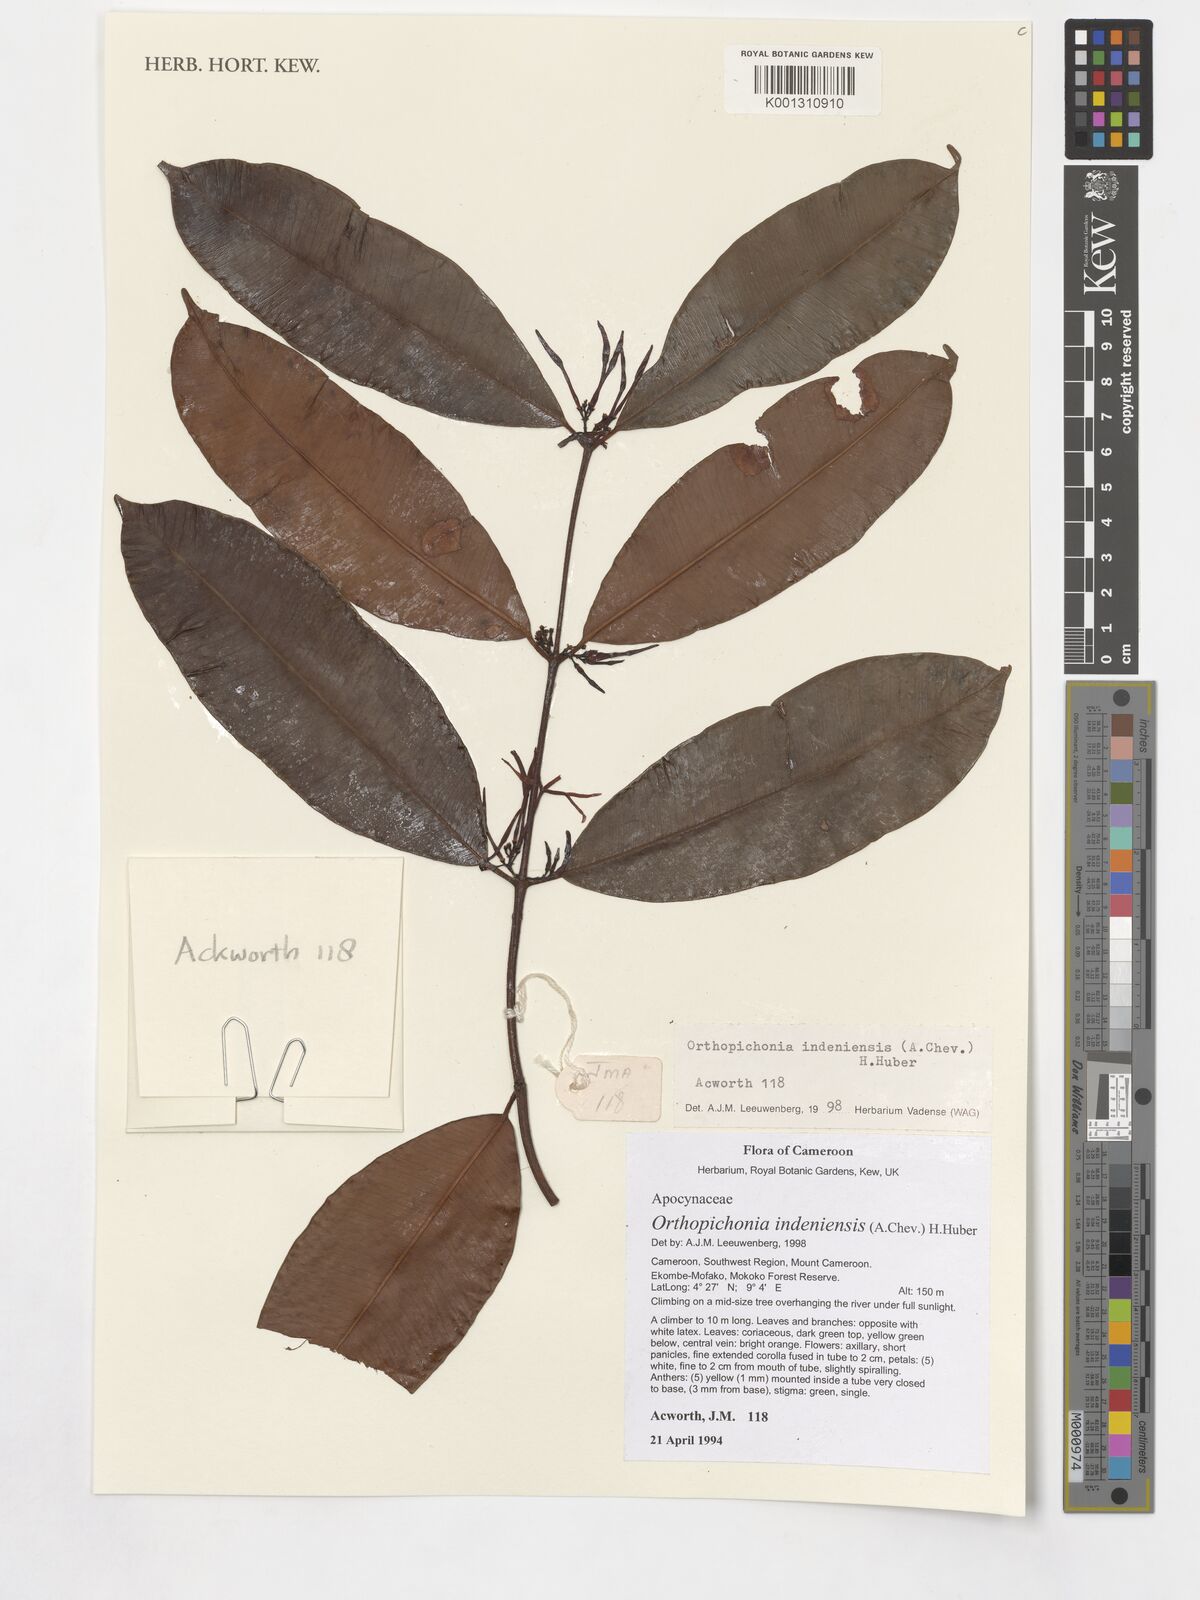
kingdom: Plantae
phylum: Tracheophyta
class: Magnoliopsida
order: Gentianales
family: Apocynaceae
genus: Orthopichonia
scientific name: Orthopichonia indeniensis
